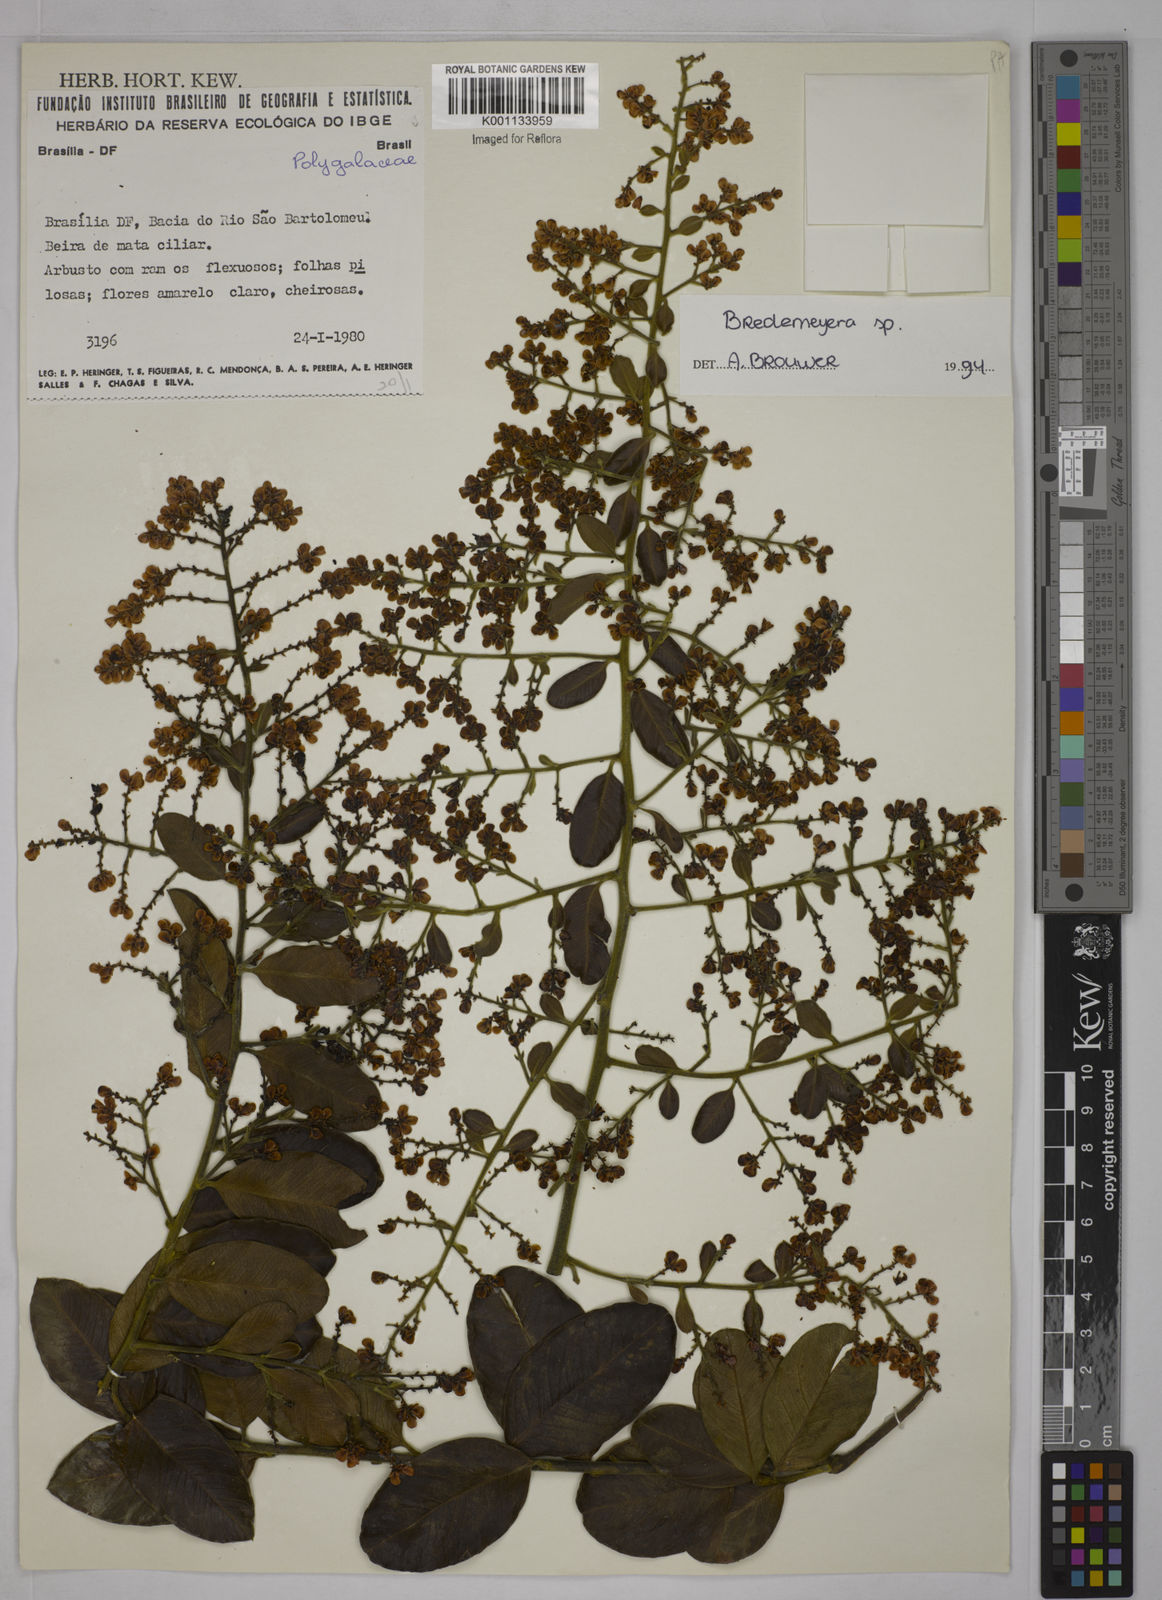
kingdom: Plantae
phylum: Tracheophyta
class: Magnoliopsida
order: Fabales
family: Polygalaceae
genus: Bredemeyera
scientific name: Bredemeyera
